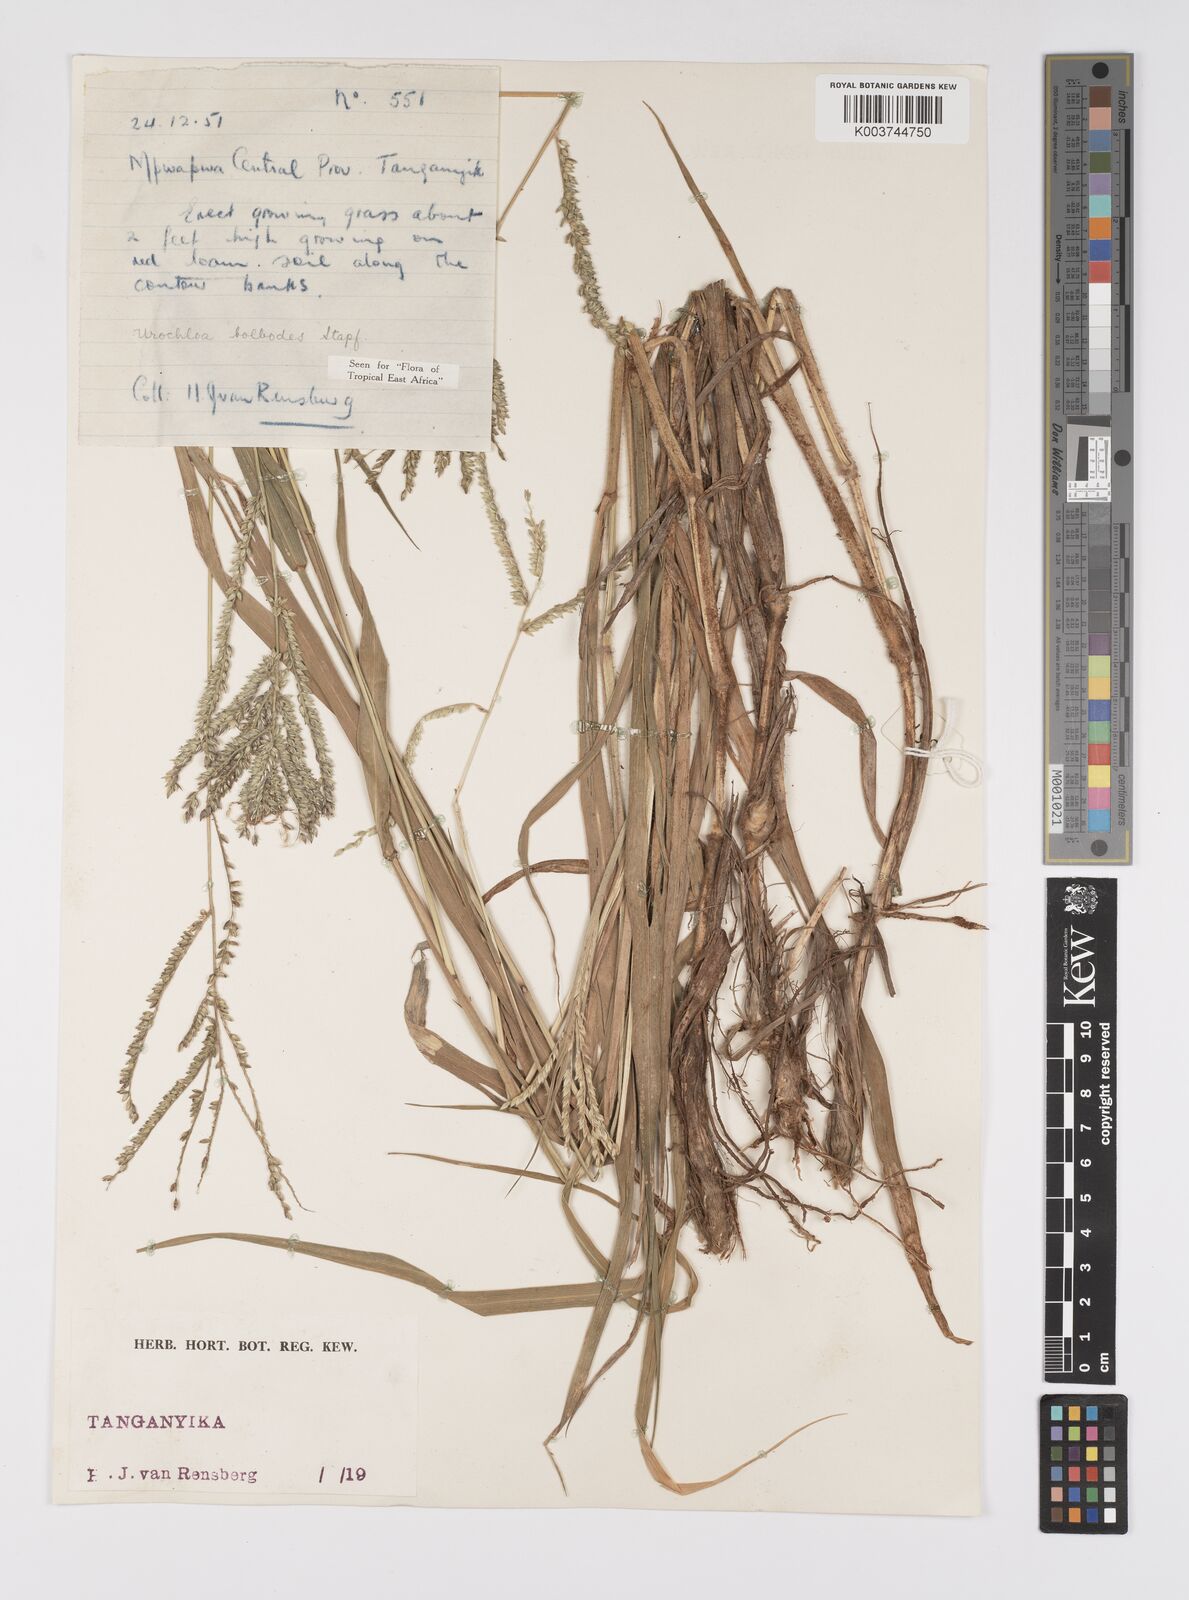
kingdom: Plantae
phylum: Tracheophyta
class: Liliopsida
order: Poales
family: Poaceae
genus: Urochloa
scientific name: Urochloa oligotricha
